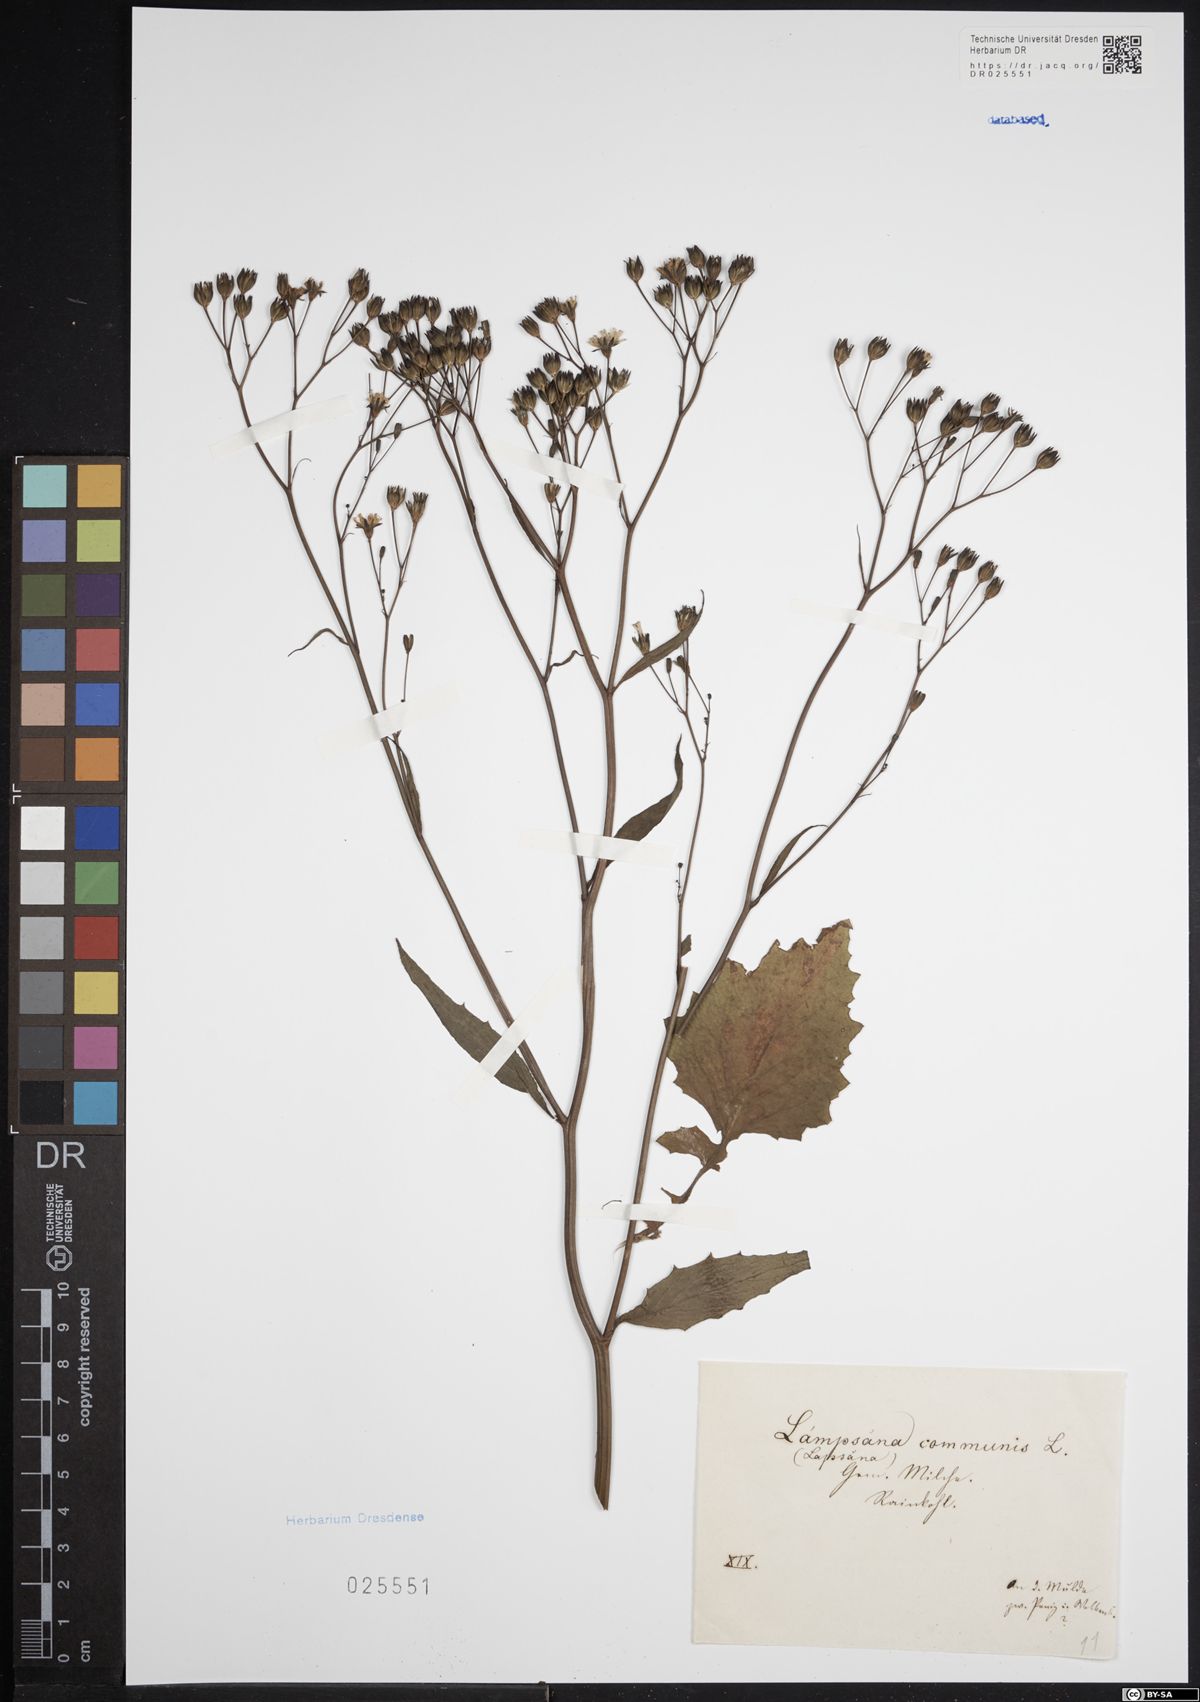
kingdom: Plantae
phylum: Tracheophyta
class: Magnoliopsida
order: Asterales
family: Asteraceae
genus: Lapsana
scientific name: Lapsana communis
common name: Nipplewort
